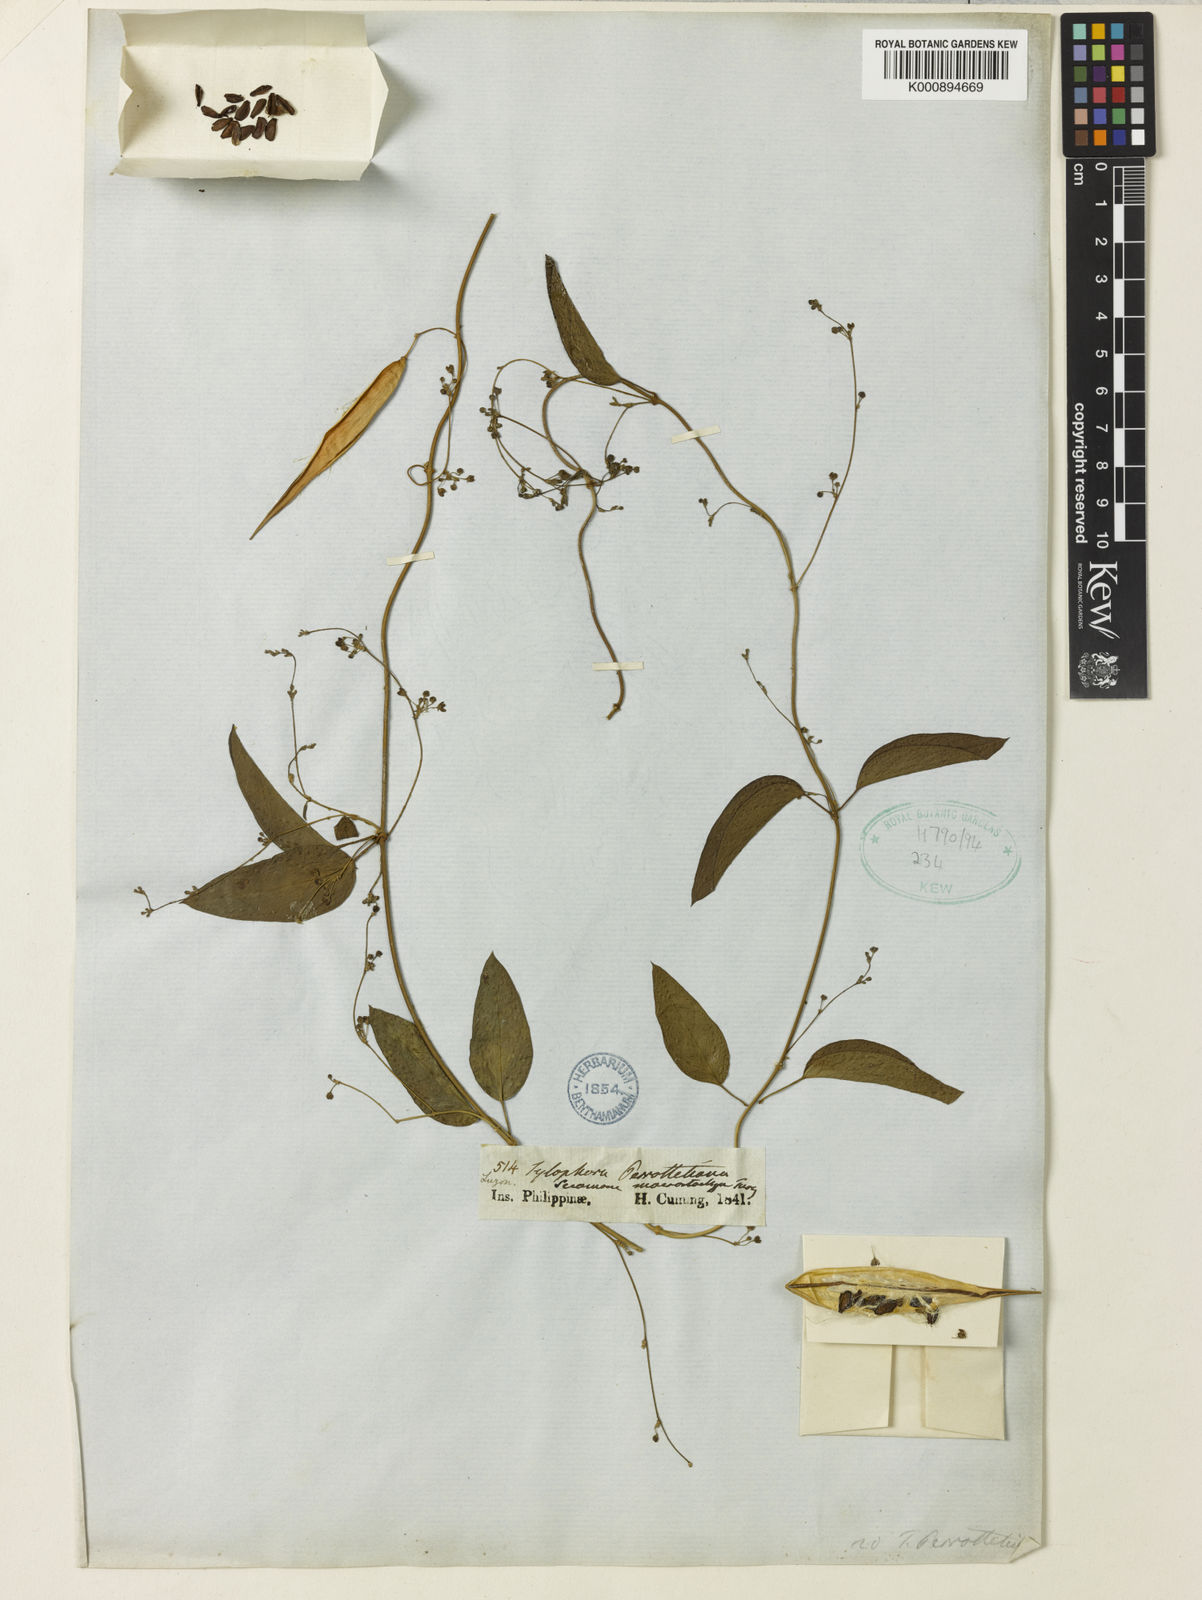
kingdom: Plantae
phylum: Tracheophyta
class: Magnoliopsida
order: Gentianales
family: Apocynaceae
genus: Vincetoxicum
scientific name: Vincetoxicum flexuosum
